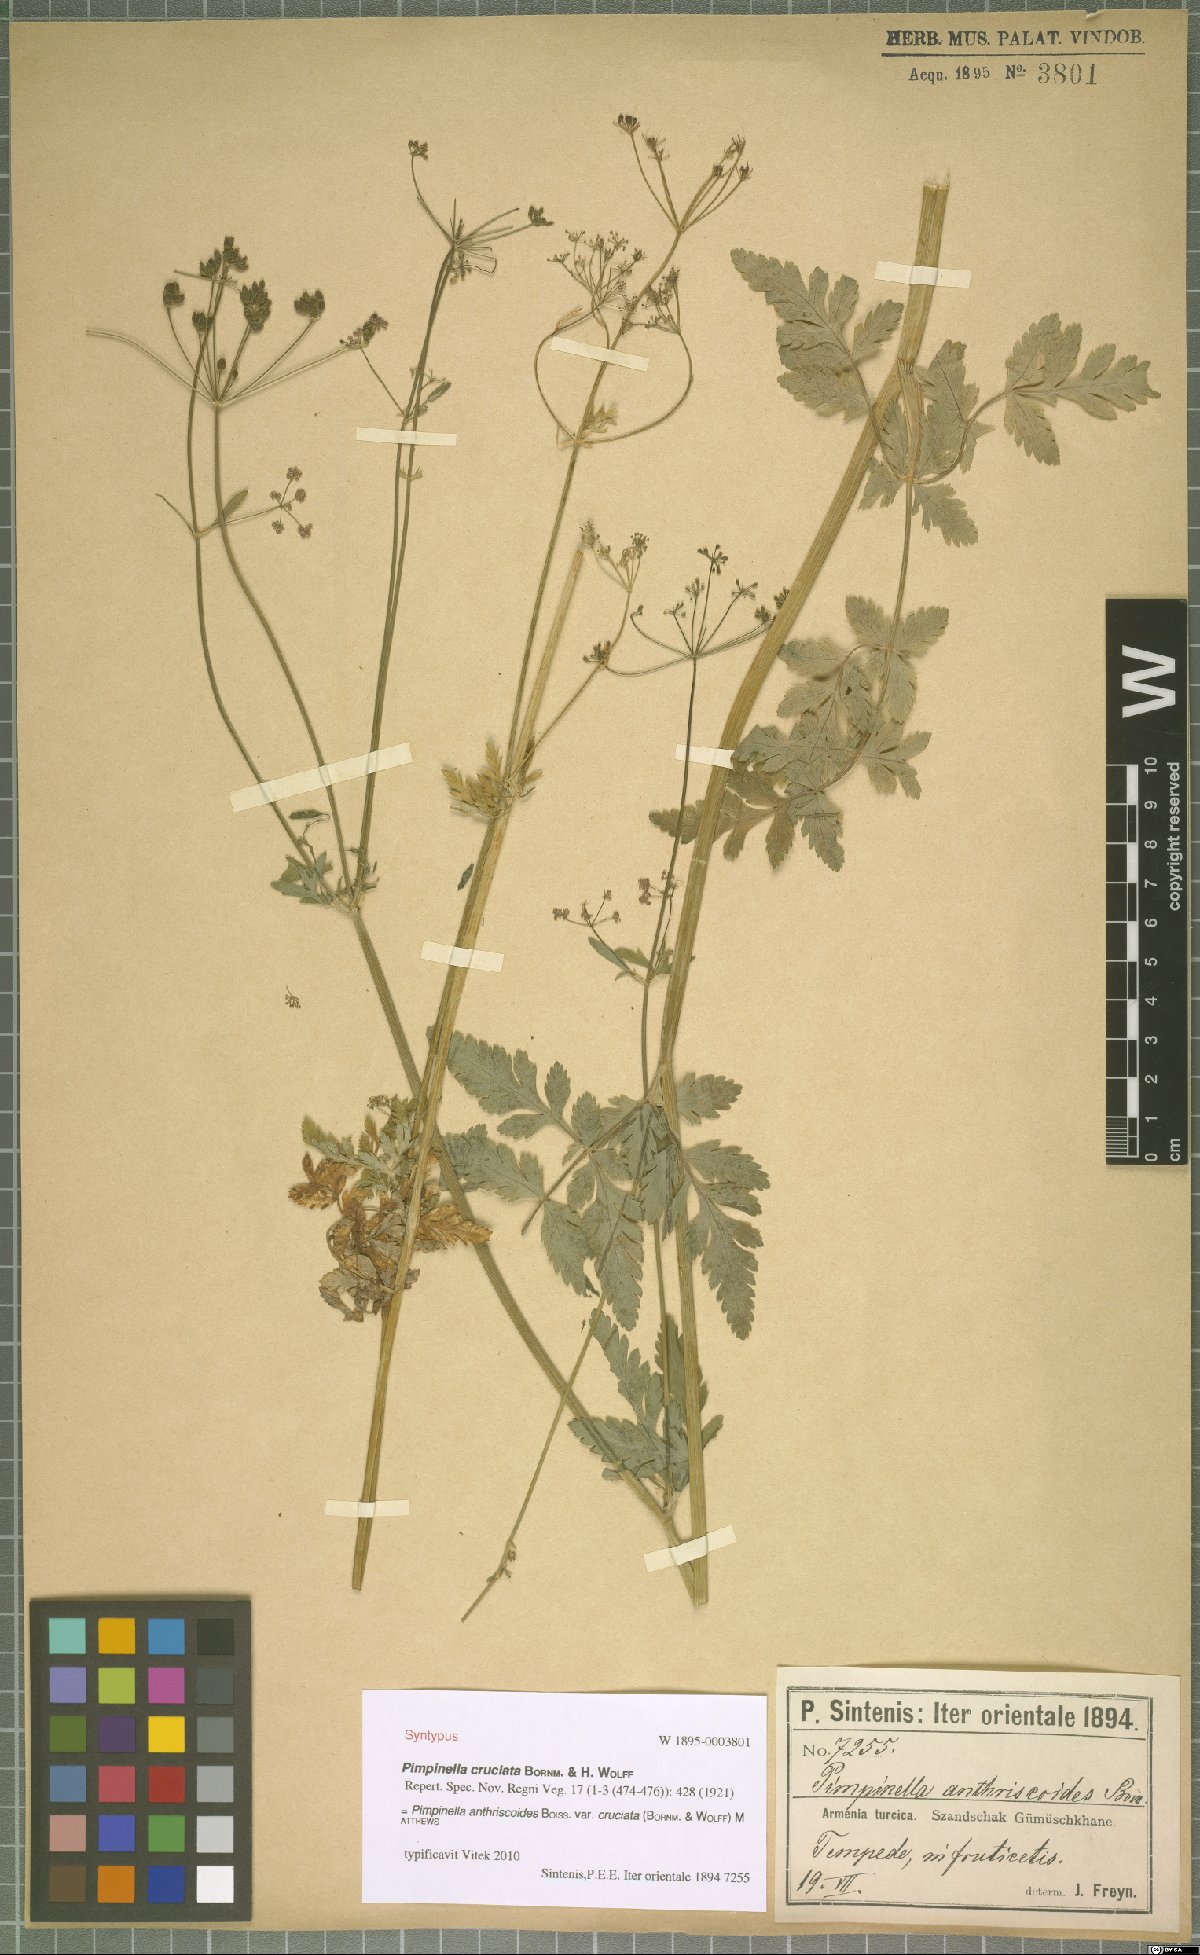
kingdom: Plantae
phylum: Tracheophyta
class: Magnoliopsida
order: Apiales
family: Apiaceae
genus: Tamamschjanella
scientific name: Tamamschjanella cruciata
